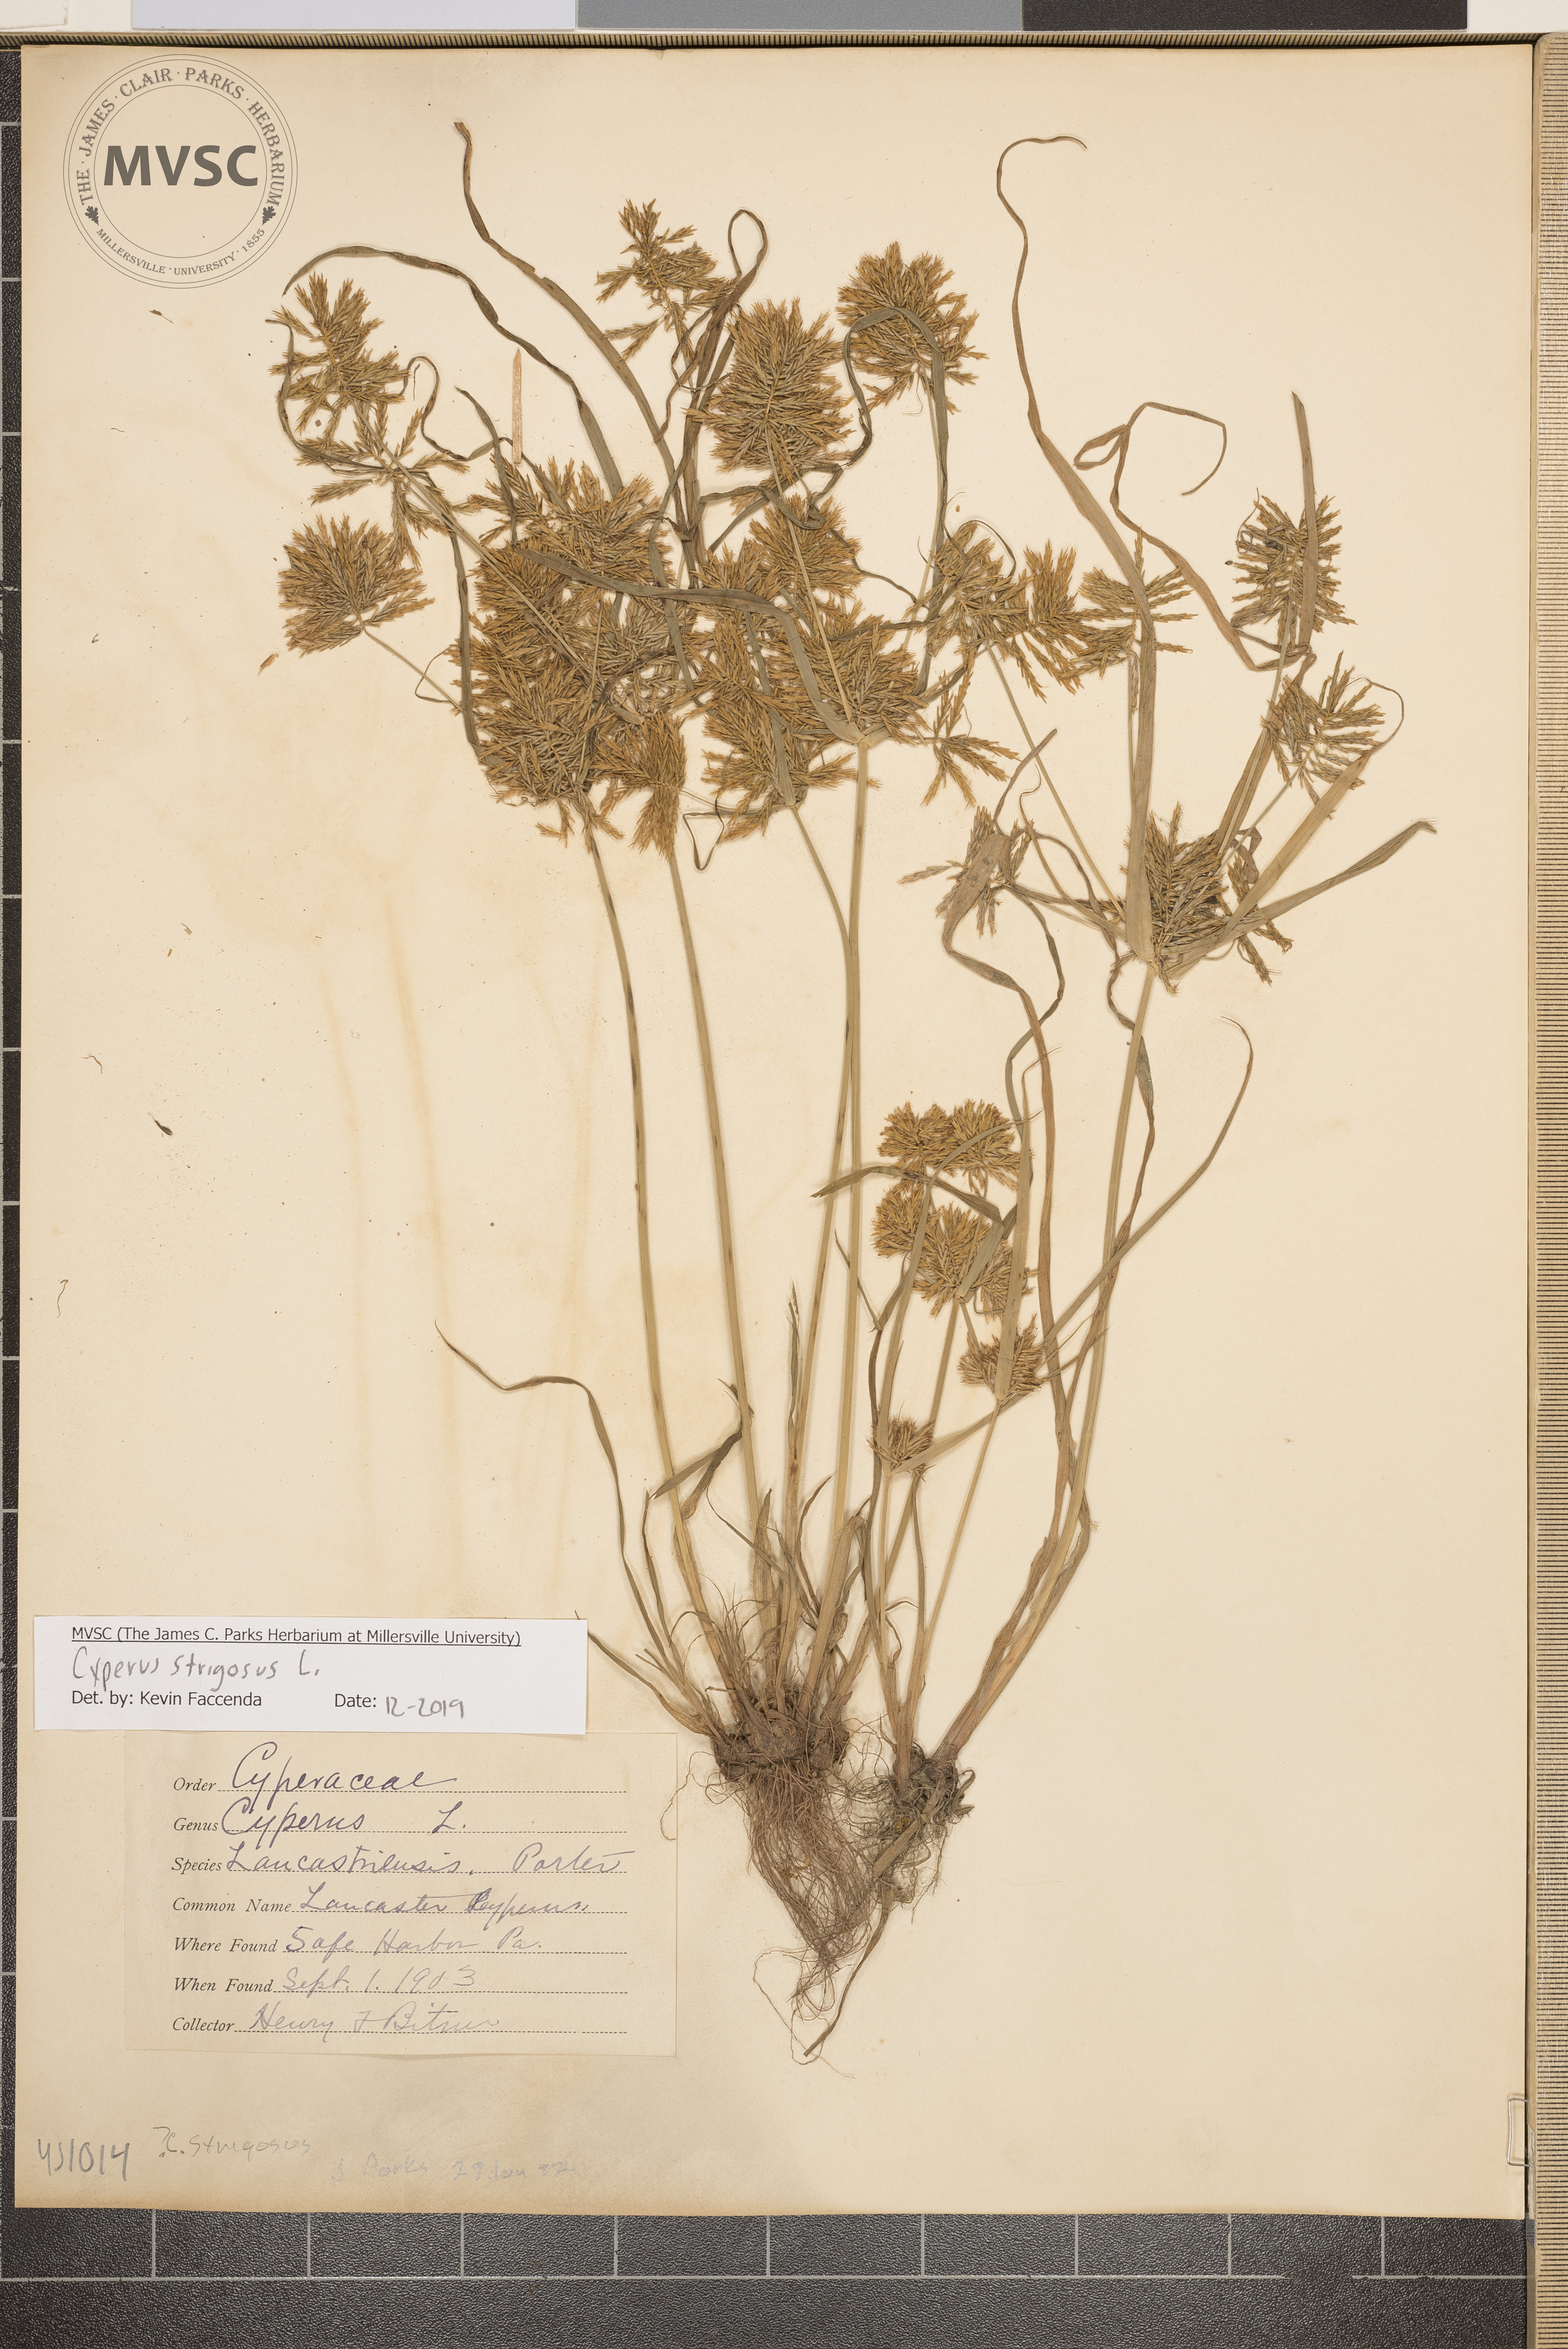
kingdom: Plantae
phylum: Tracheophyta
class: Liliopsida
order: Poales
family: Cyperaceae
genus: Cyperus
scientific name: Cyperus strigosus
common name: False nutsedge
